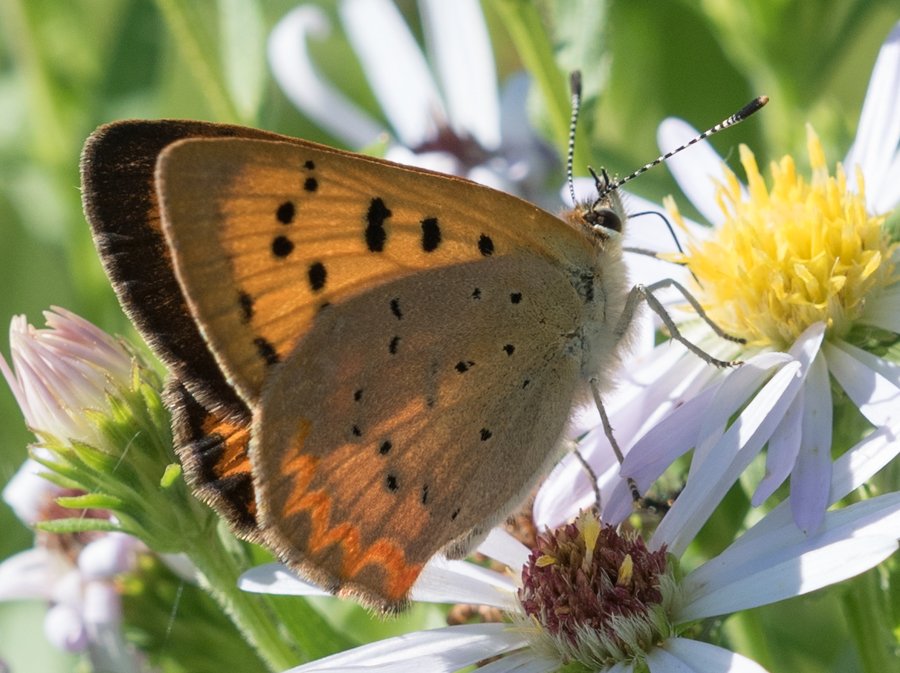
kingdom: Animalia
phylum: Arthropoda
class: Insecta
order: Lepidoptera
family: Sesiidae
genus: Sesia
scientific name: Sesia Lycaena helloides
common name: Purplish Copper
